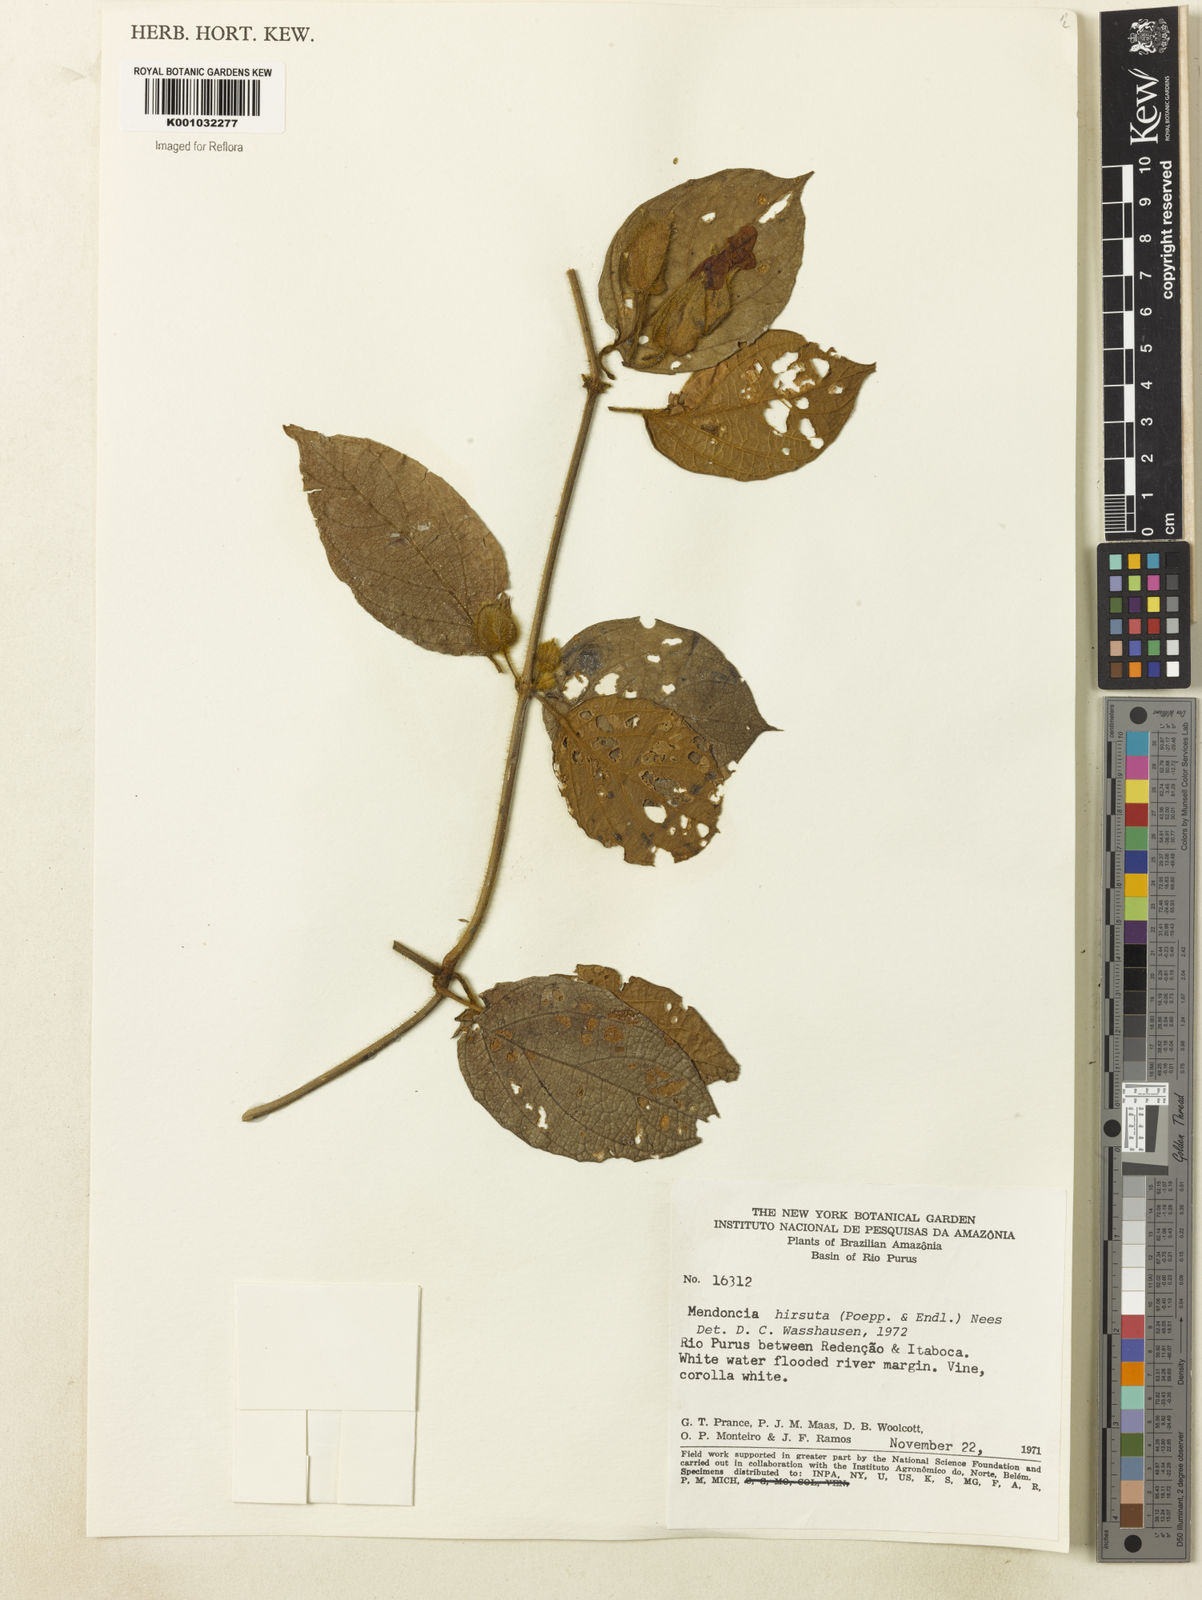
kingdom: Plantae
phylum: Tracheophyta
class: Magnoliopsida
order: Lamiales
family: Acanthaceae
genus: Mendoncia
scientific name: Mendoncia
